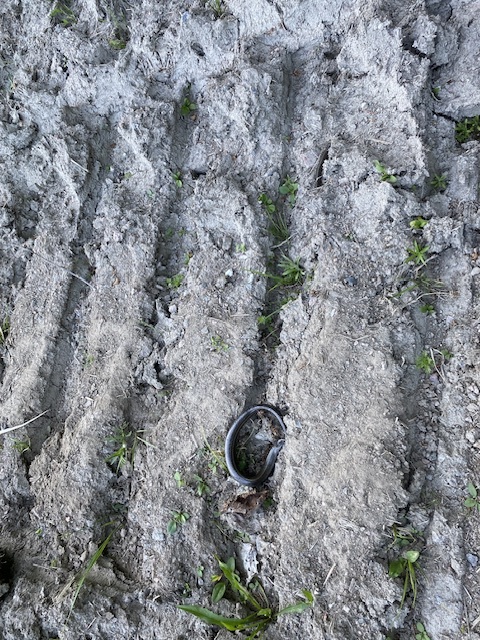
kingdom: Animalia
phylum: Chordata
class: Squamata
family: Anguidae
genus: Anguis
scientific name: Anguis colchica
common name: Slow worm
